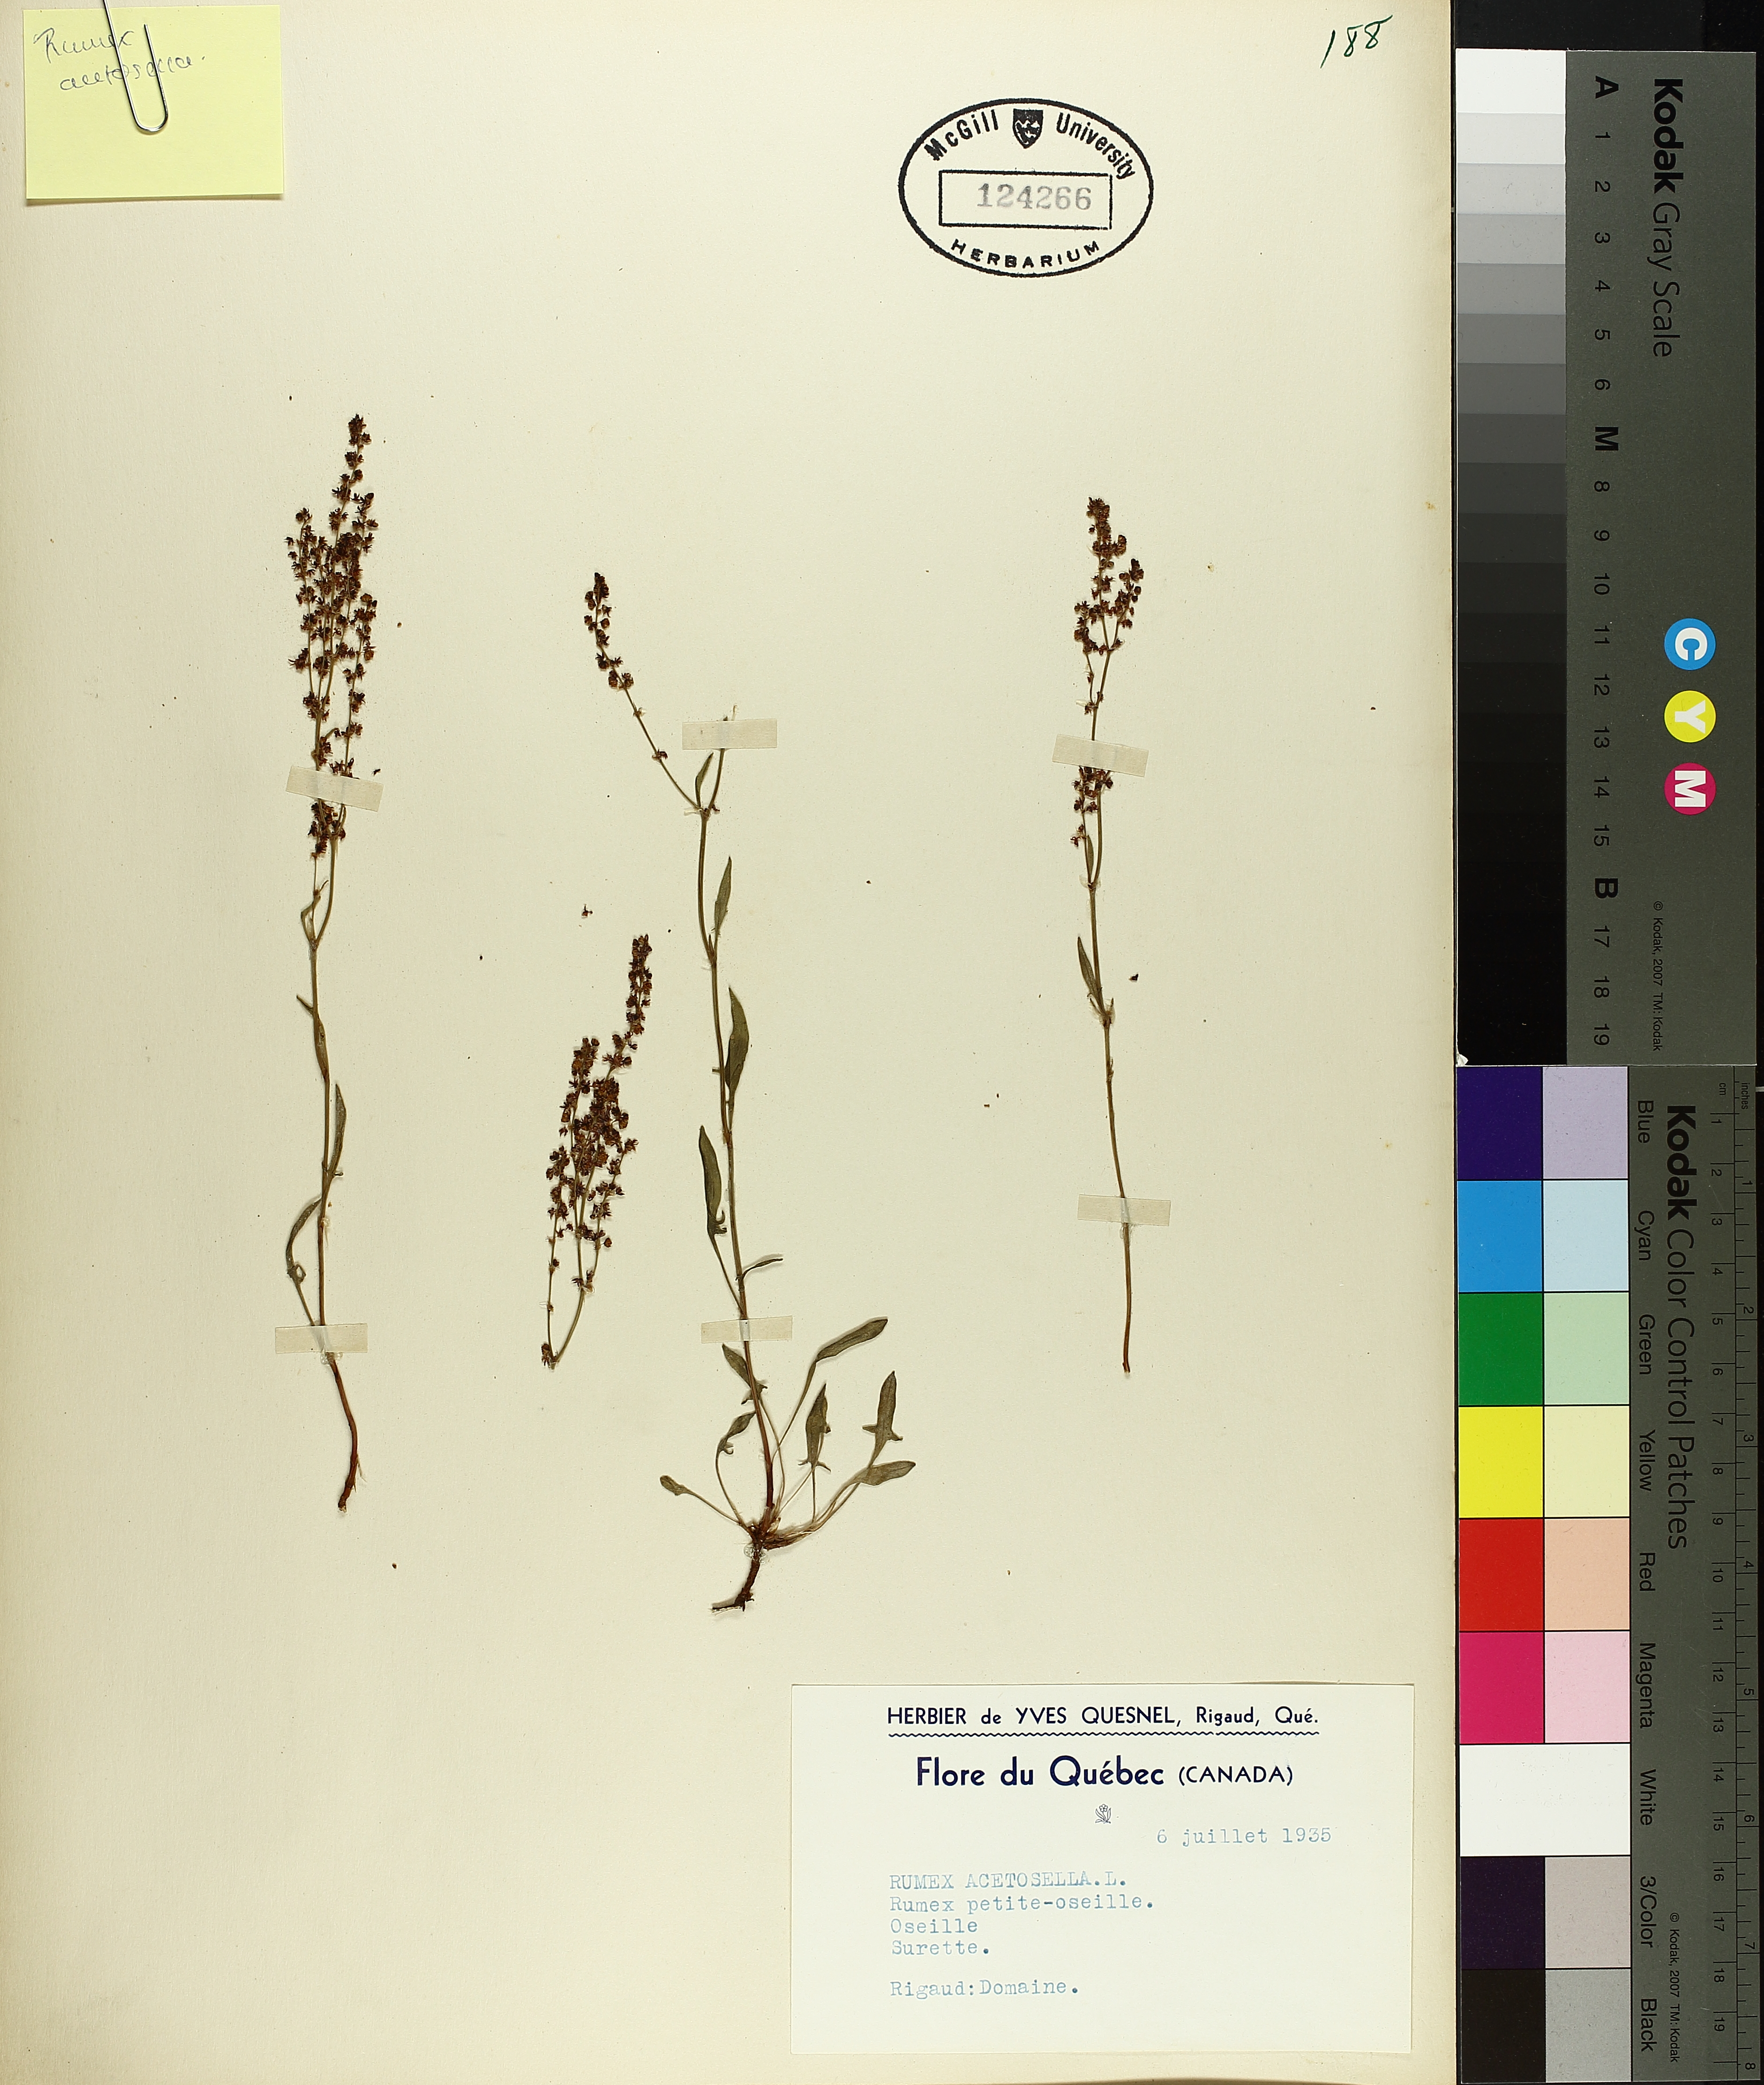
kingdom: Plantae
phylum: Tracheophyta
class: Magnoliopsida
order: Caryophyllales
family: Polygonaceae
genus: Rumex
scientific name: Rumex acetosella
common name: Common sheep sorrel
